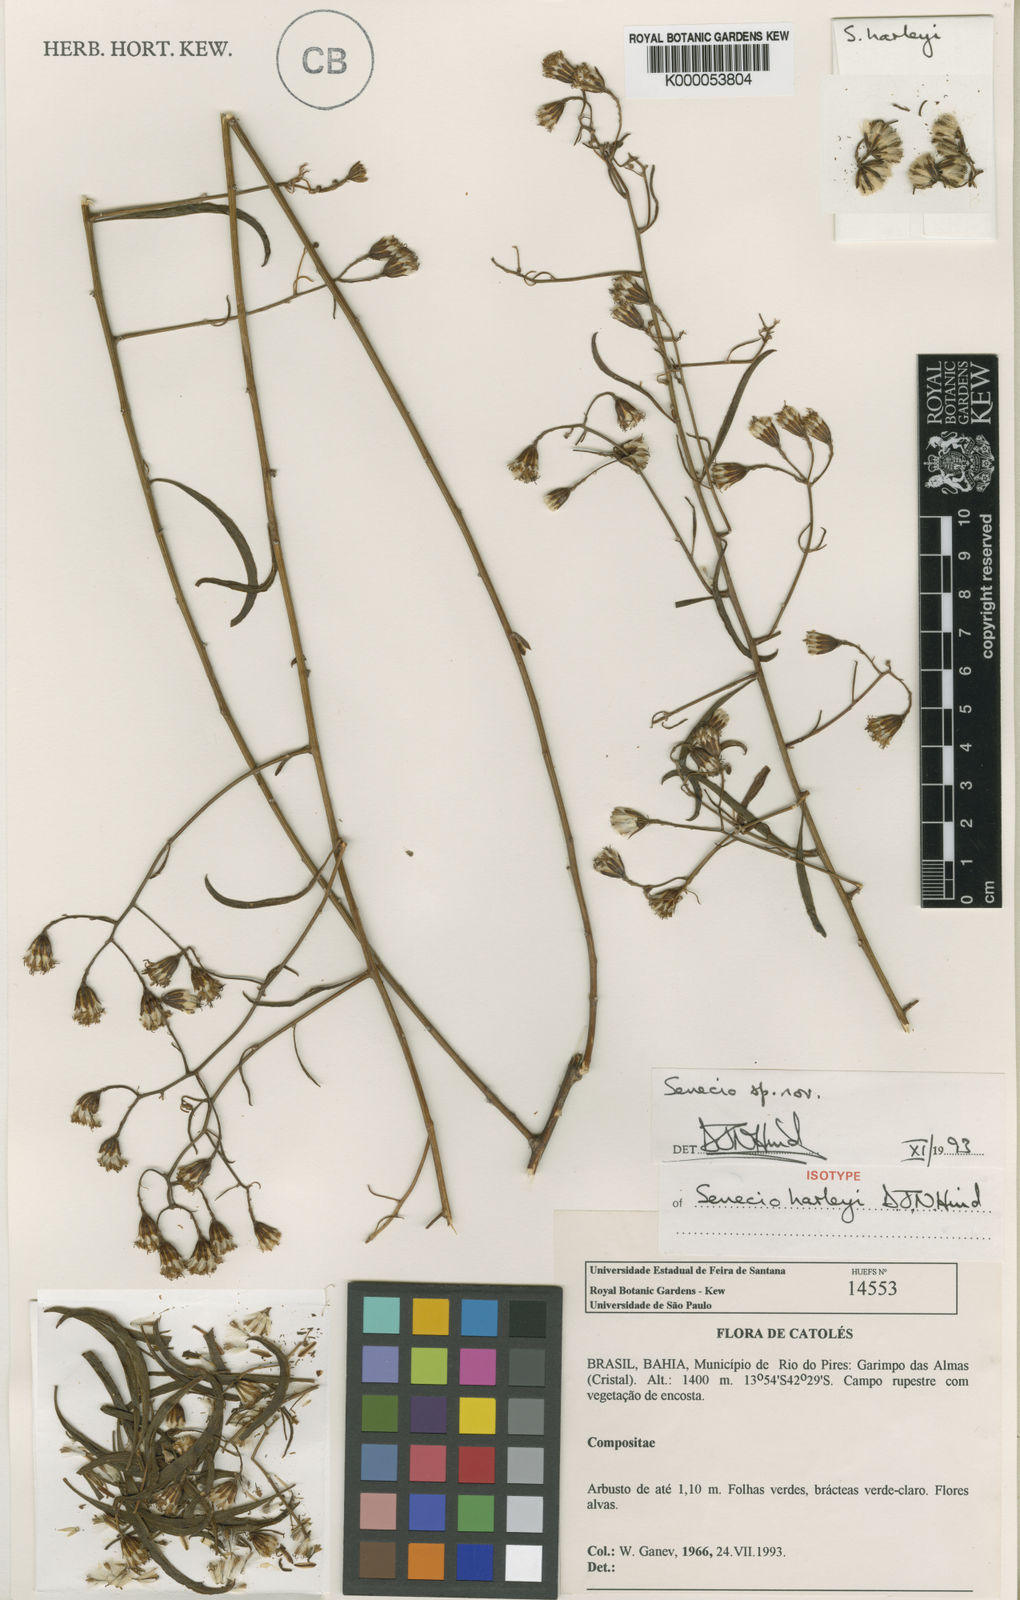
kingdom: Plantae
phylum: Tracheophyta
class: Magnoliopsida
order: Asterales
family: Asteraceae
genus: Senecio
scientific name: Senecio harleyi
